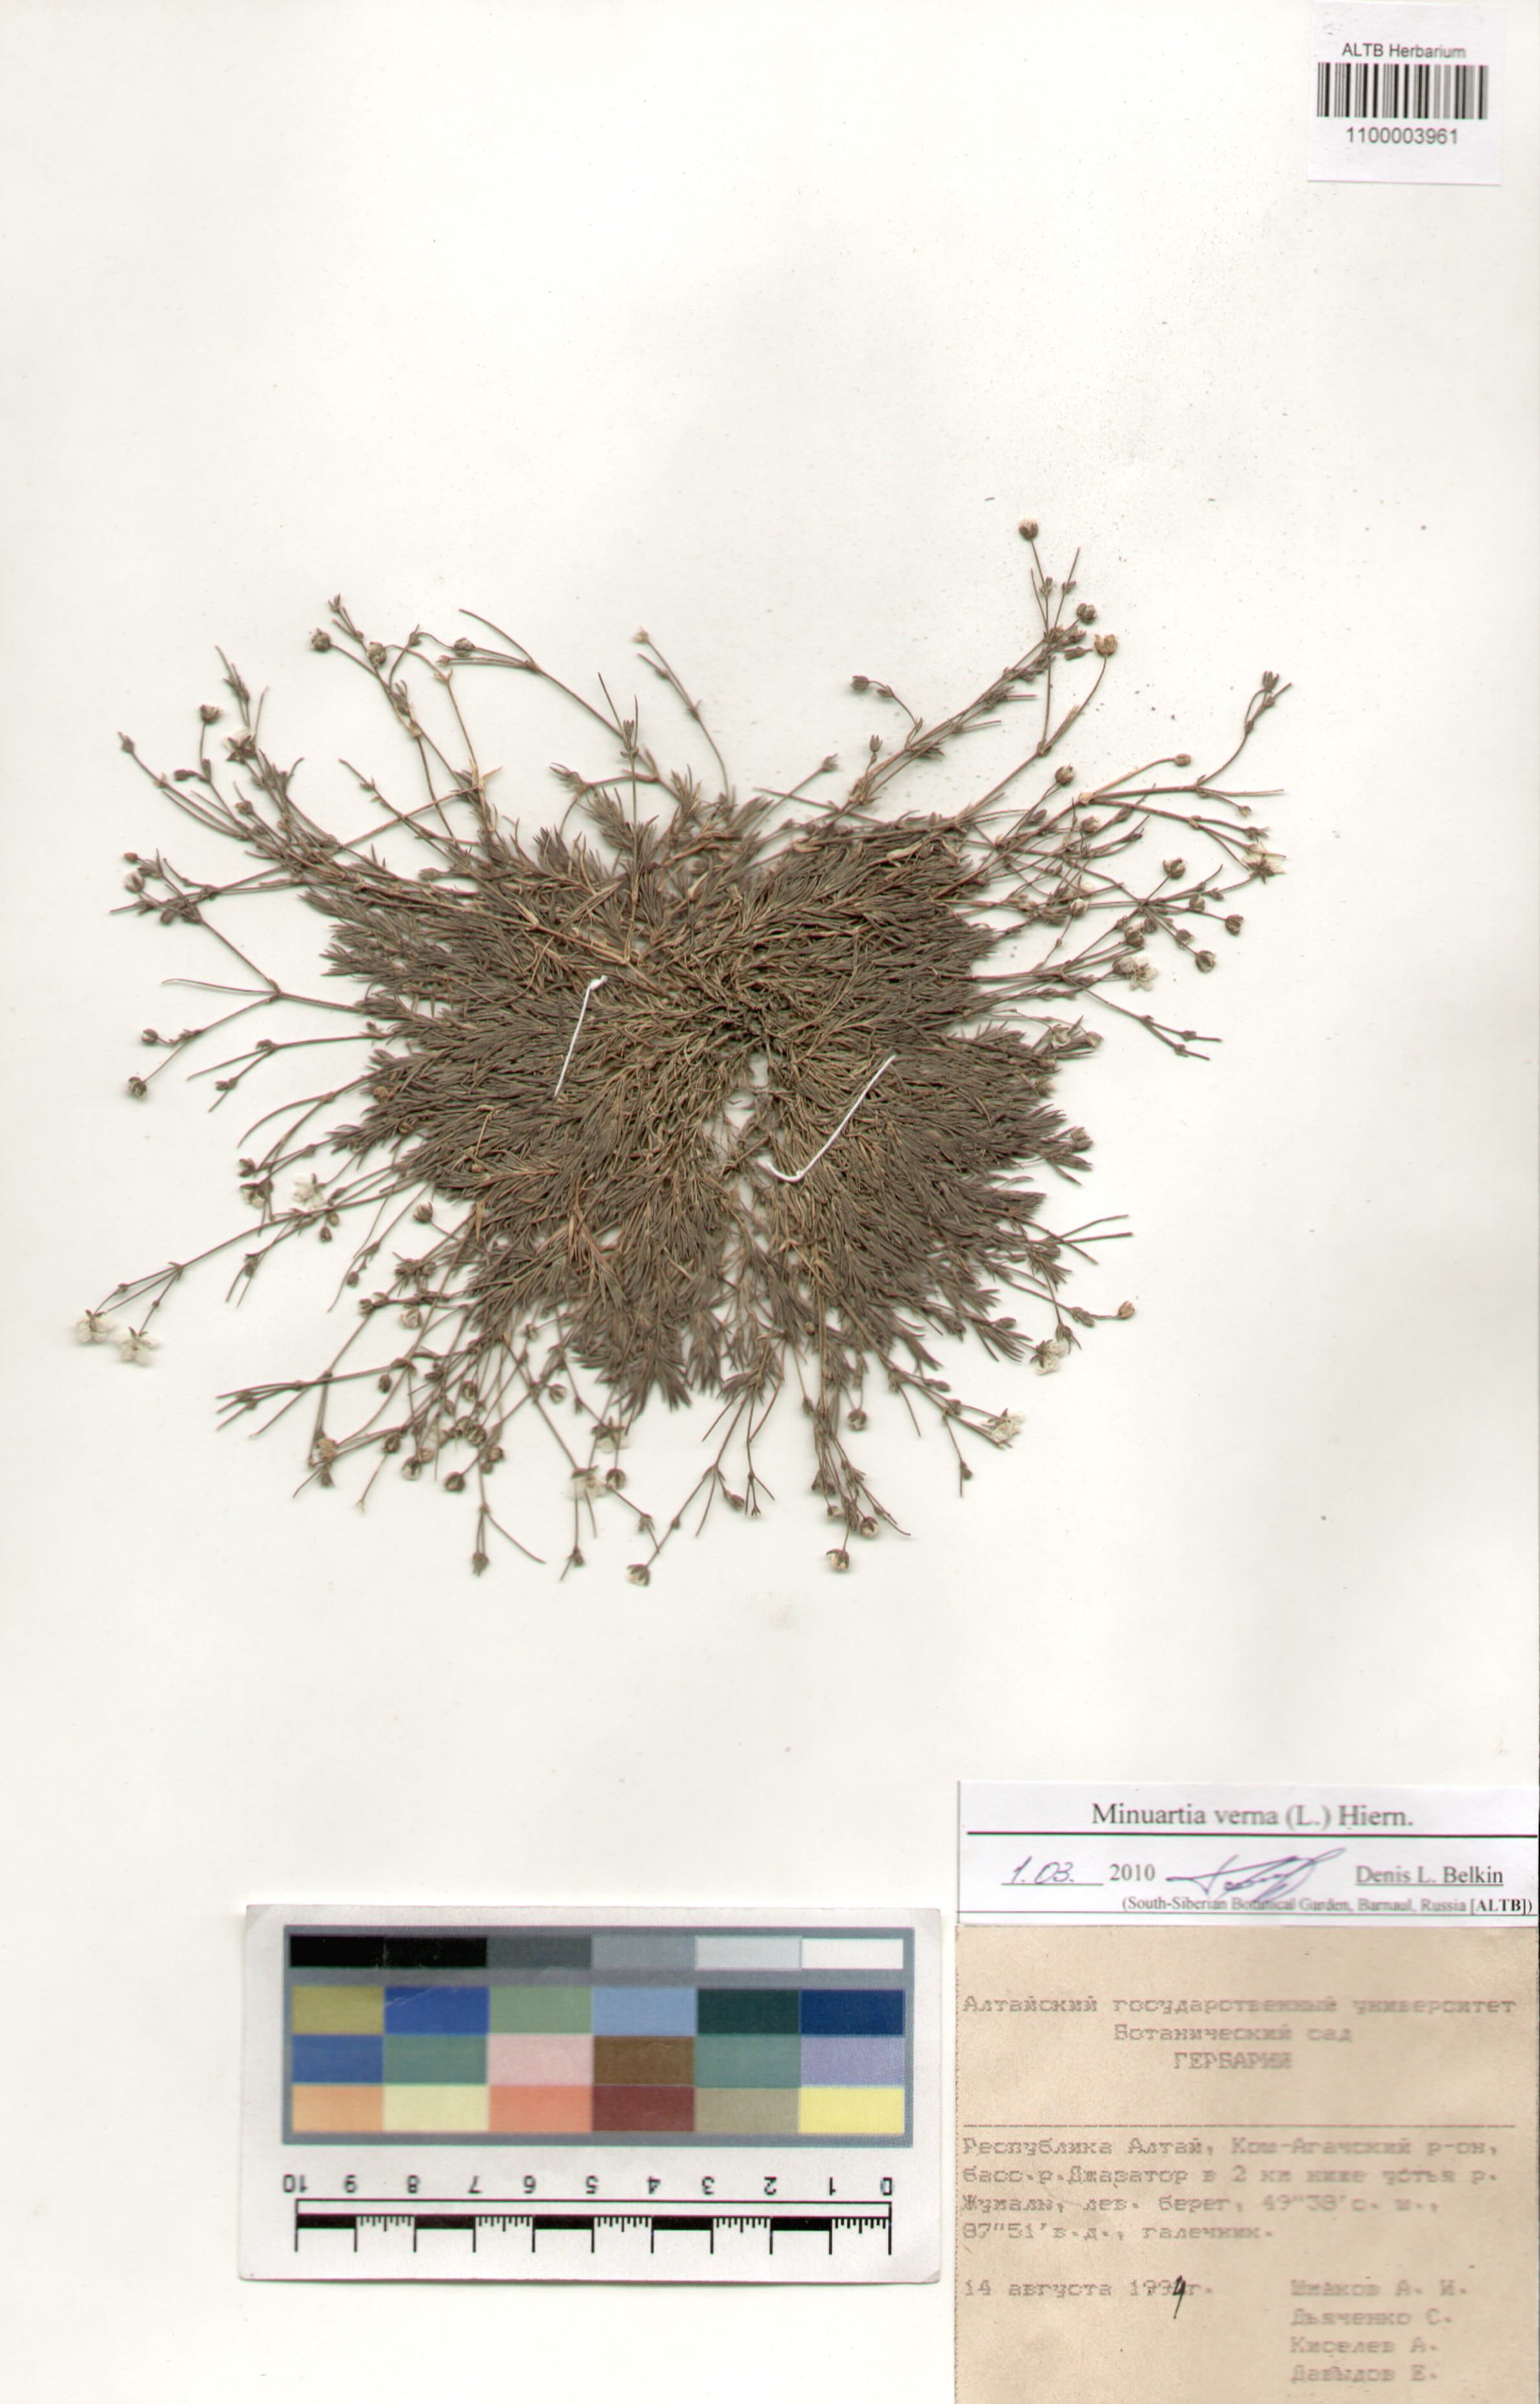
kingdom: Plantae
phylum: Tracheophyta
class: Magnoliopsida
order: Caryophyllales
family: Caryophyllaceae
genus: Sabulina
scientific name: Sabulina verna
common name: Spring sandwort
